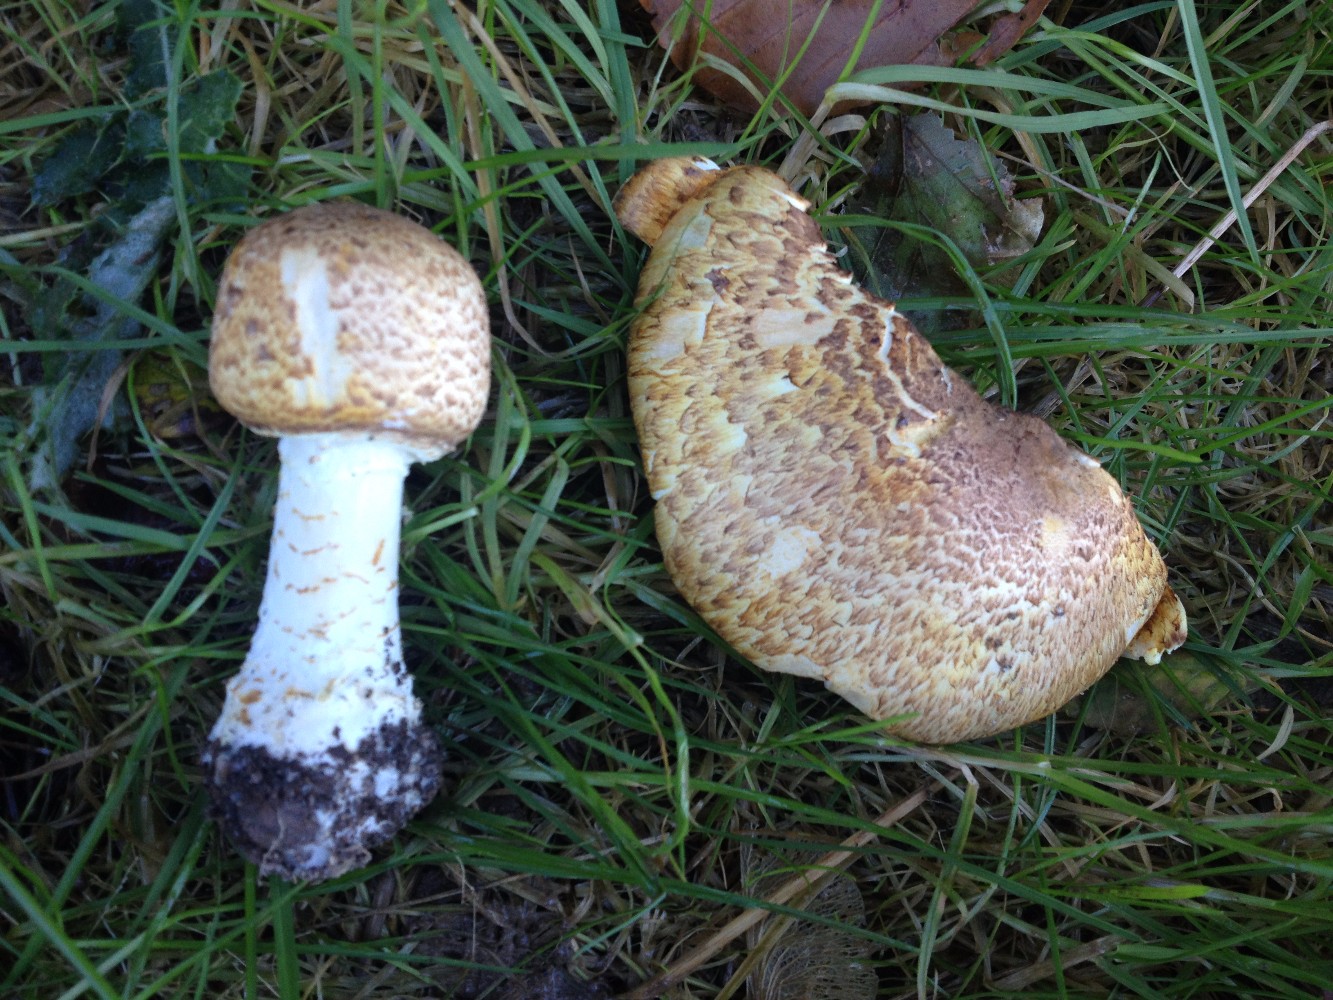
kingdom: Fungi
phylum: Basidiomycota
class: Agaricomycetes
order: Agaricales
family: Agaricaceae
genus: Agaricus
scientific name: Agaricus augustus
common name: prægtig champignon
